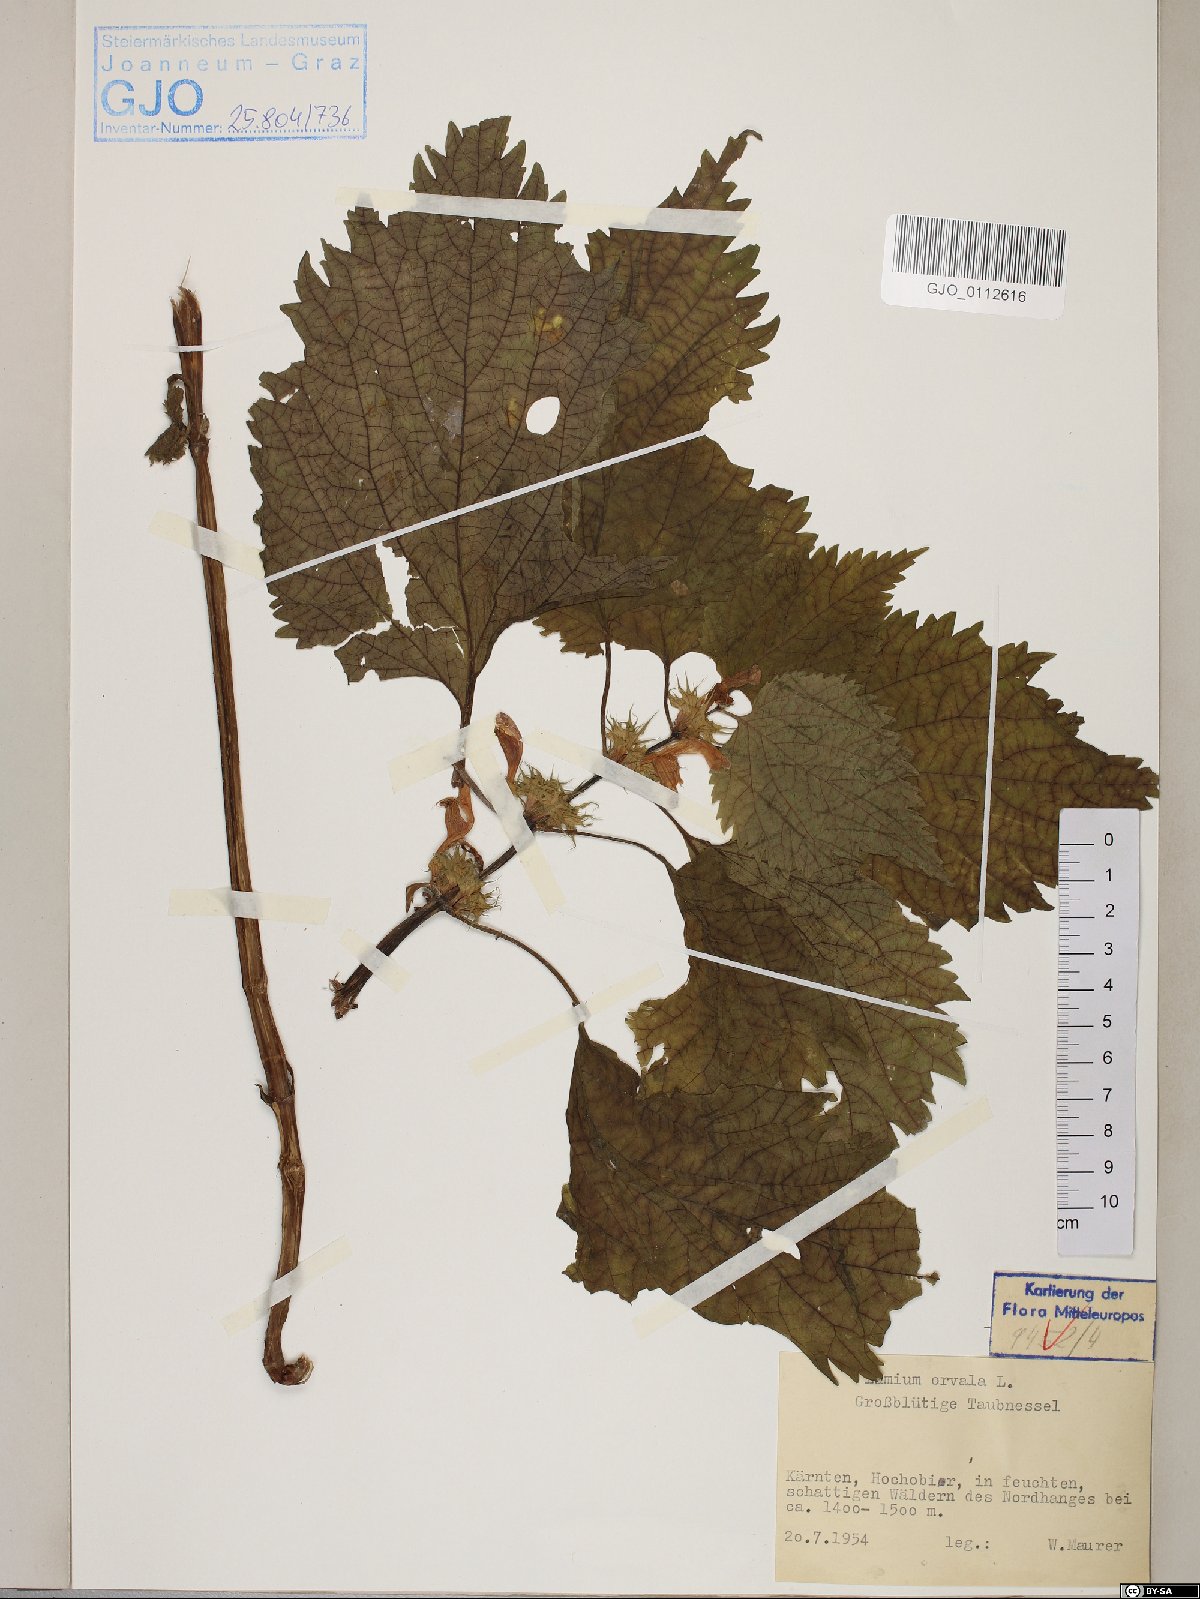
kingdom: Plantae
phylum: Tracheophyta
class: Magnoliopsida
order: Lamiales
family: Lamiaceae
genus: Lamium
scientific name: Lamium orvala
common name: Balm-leaved archangel
